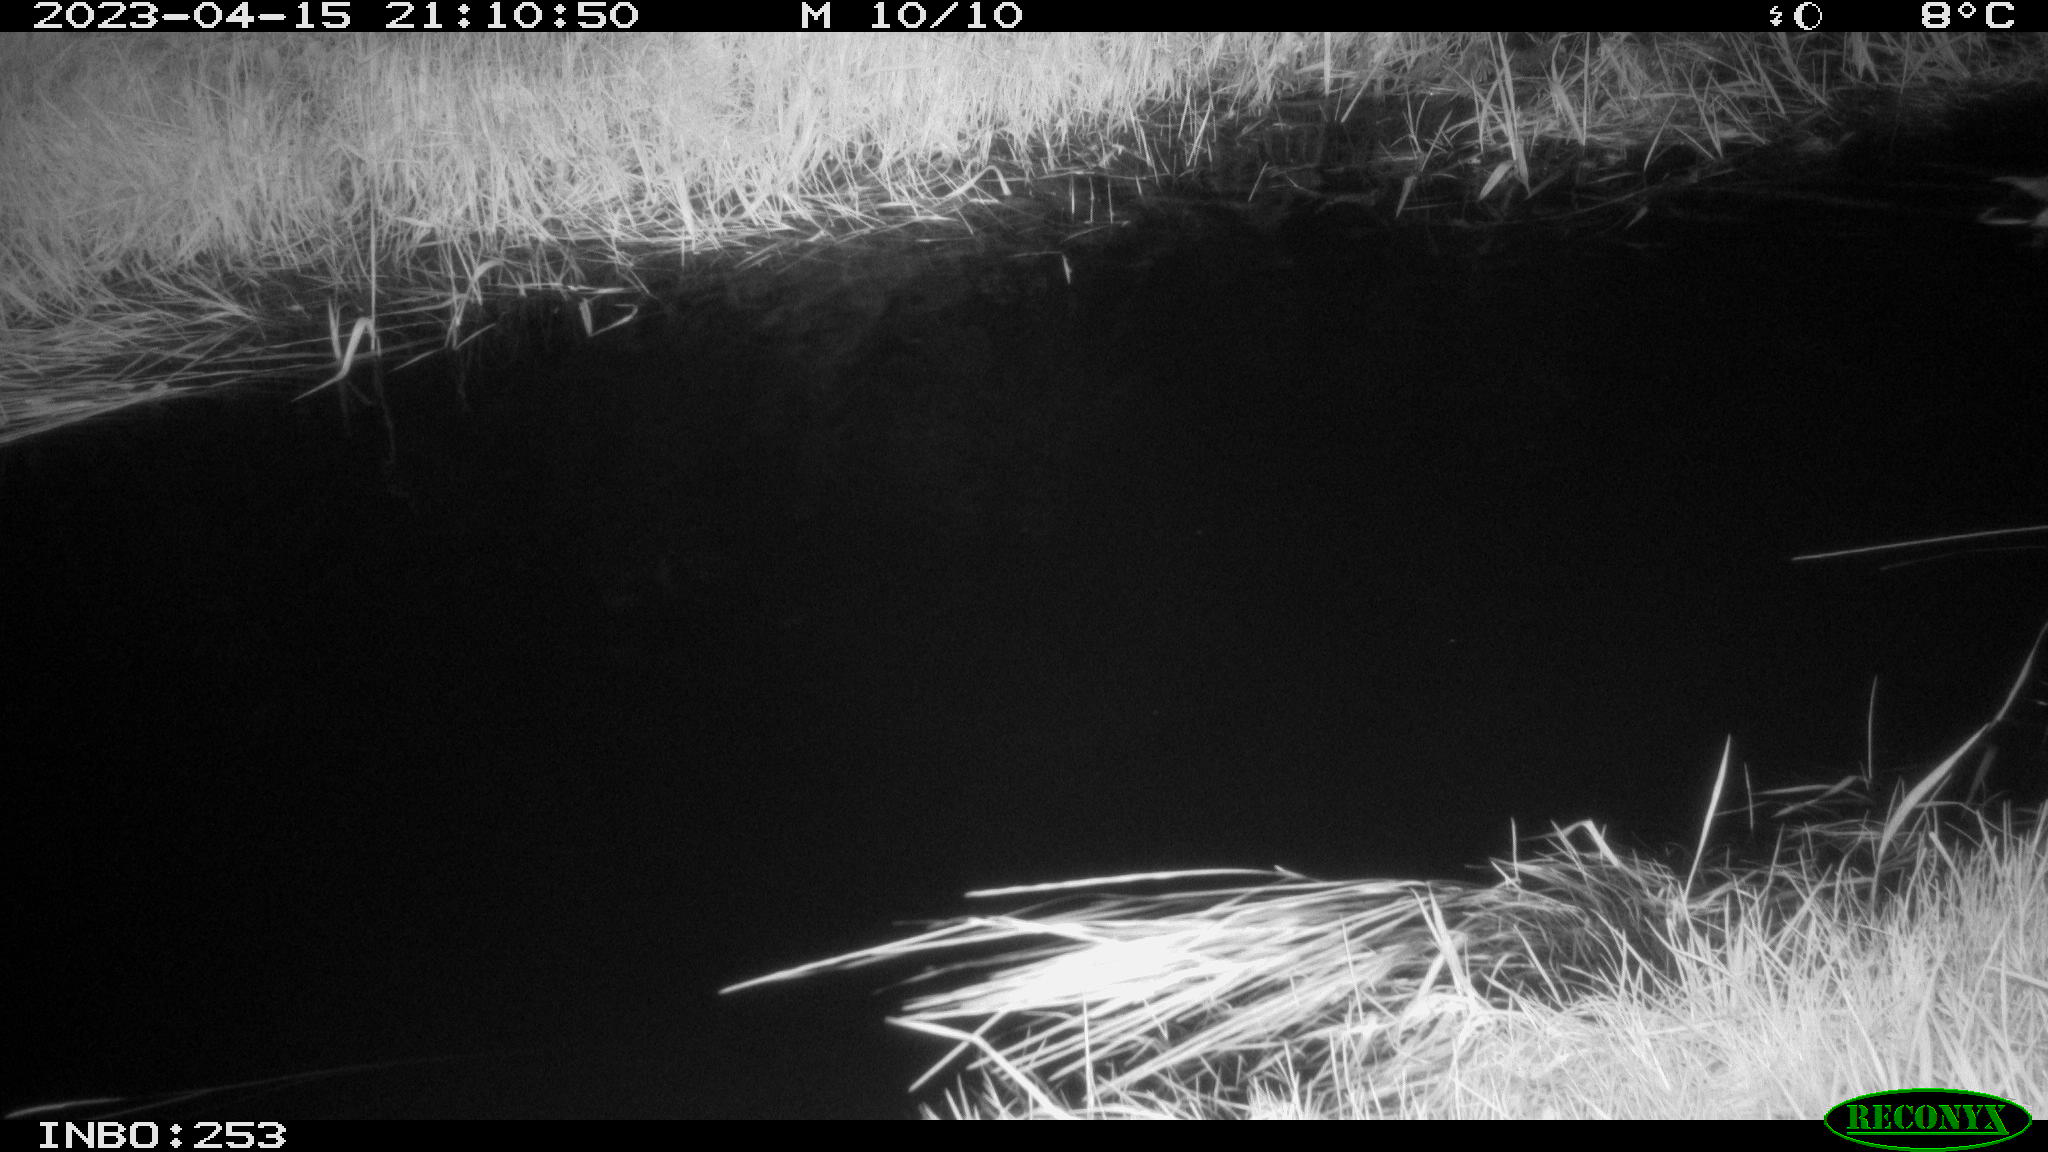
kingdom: Animalia
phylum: Chordata
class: Aves
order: Anseriformes
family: Anatidae
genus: Anas
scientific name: Anas
